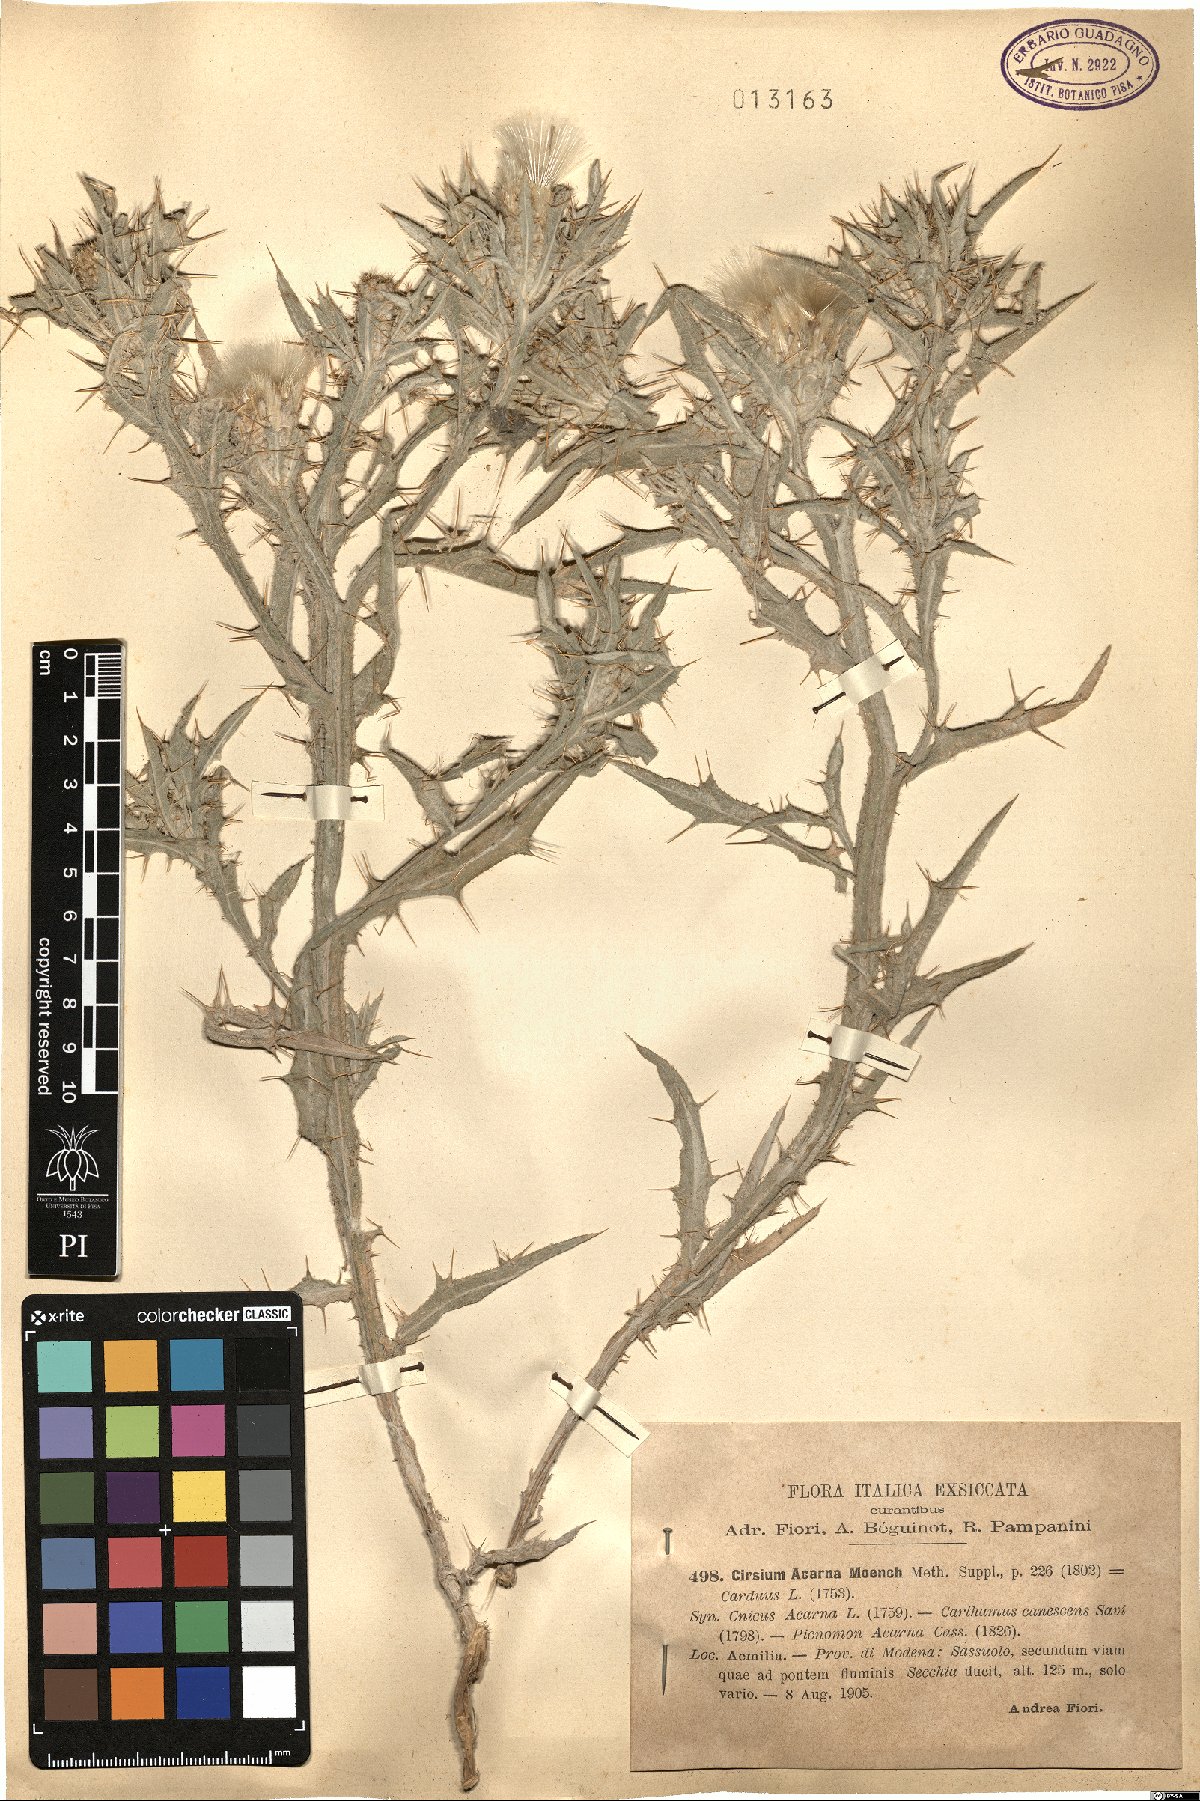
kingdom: Plantae
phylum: Tracheophyta
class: Magnoliopsida
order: Asterales
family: Asteraceae
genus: Picnomon
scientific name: Picnomon acarna
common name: Soldier thistle
